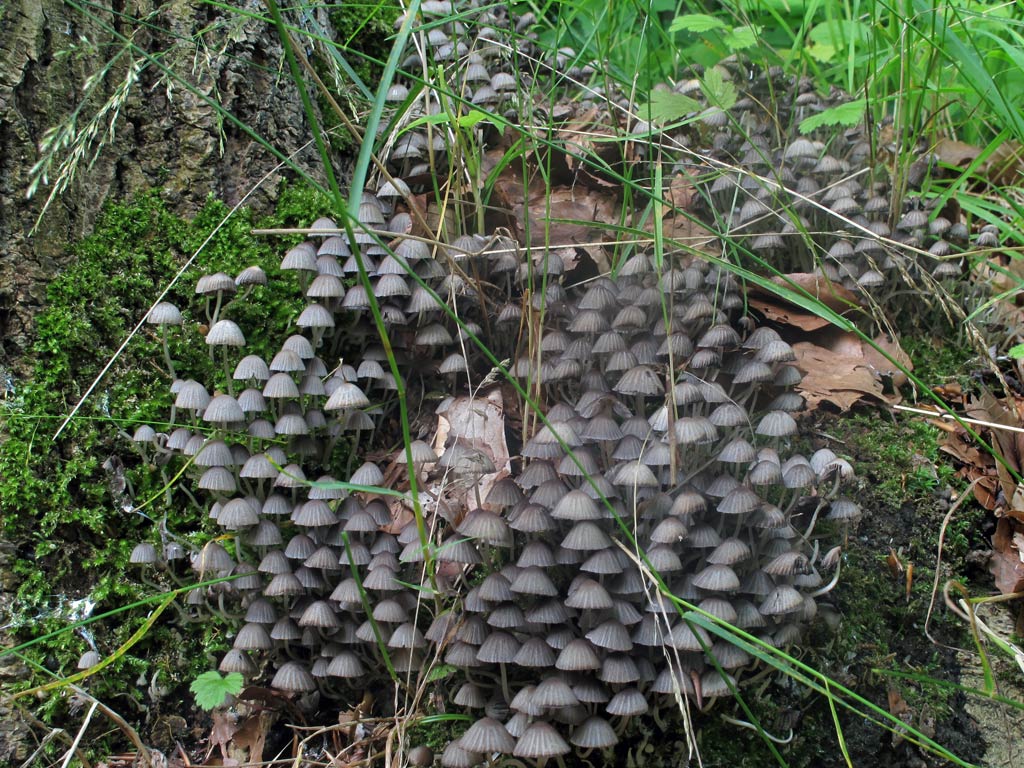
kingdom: Fungi
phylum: Basidiomycota
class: Agaricomycetes
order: Agaricales
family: Psathyrellaceae
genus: Coprinellus
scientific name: Coprinellus disseminatus
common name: bredsået blækhat
